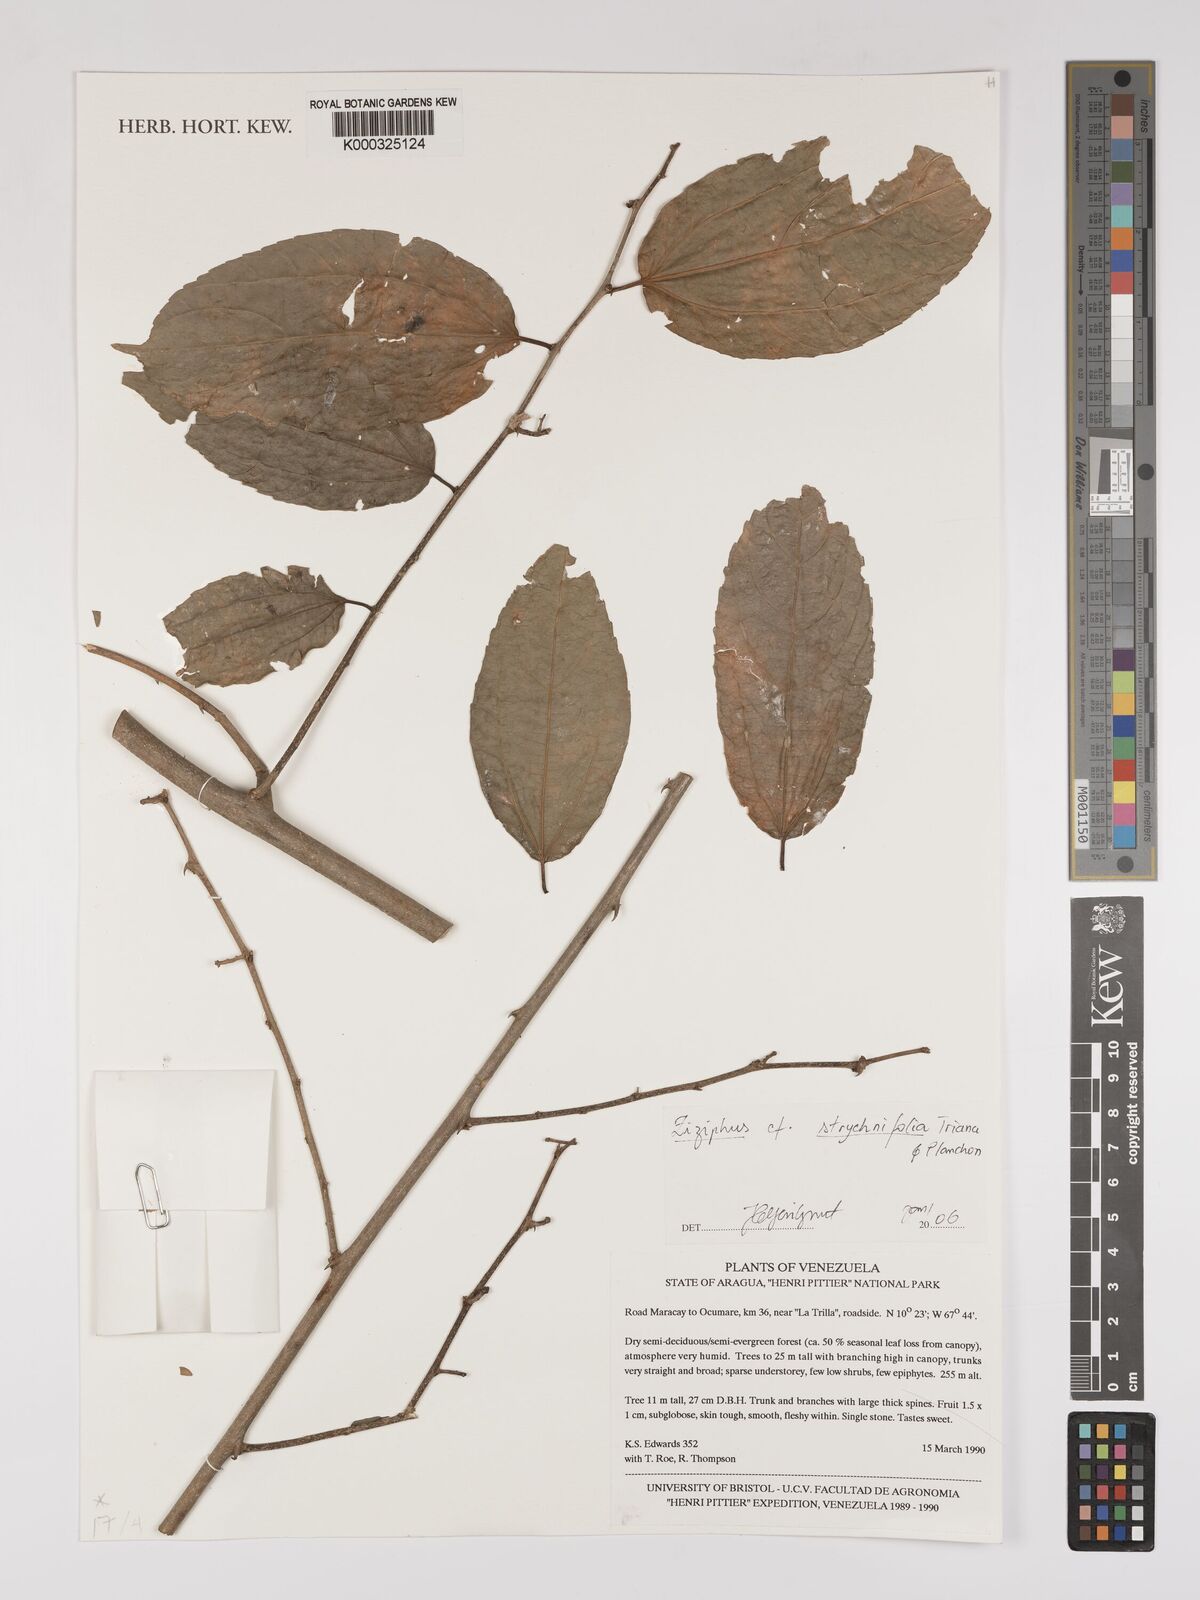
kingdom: Plantae
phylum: Tracheophyta
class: Magnoliopsida
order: Rosales
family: Rhamnaceae
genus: Sarcomphalus
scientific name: Sarcomphalus strychnifolius
